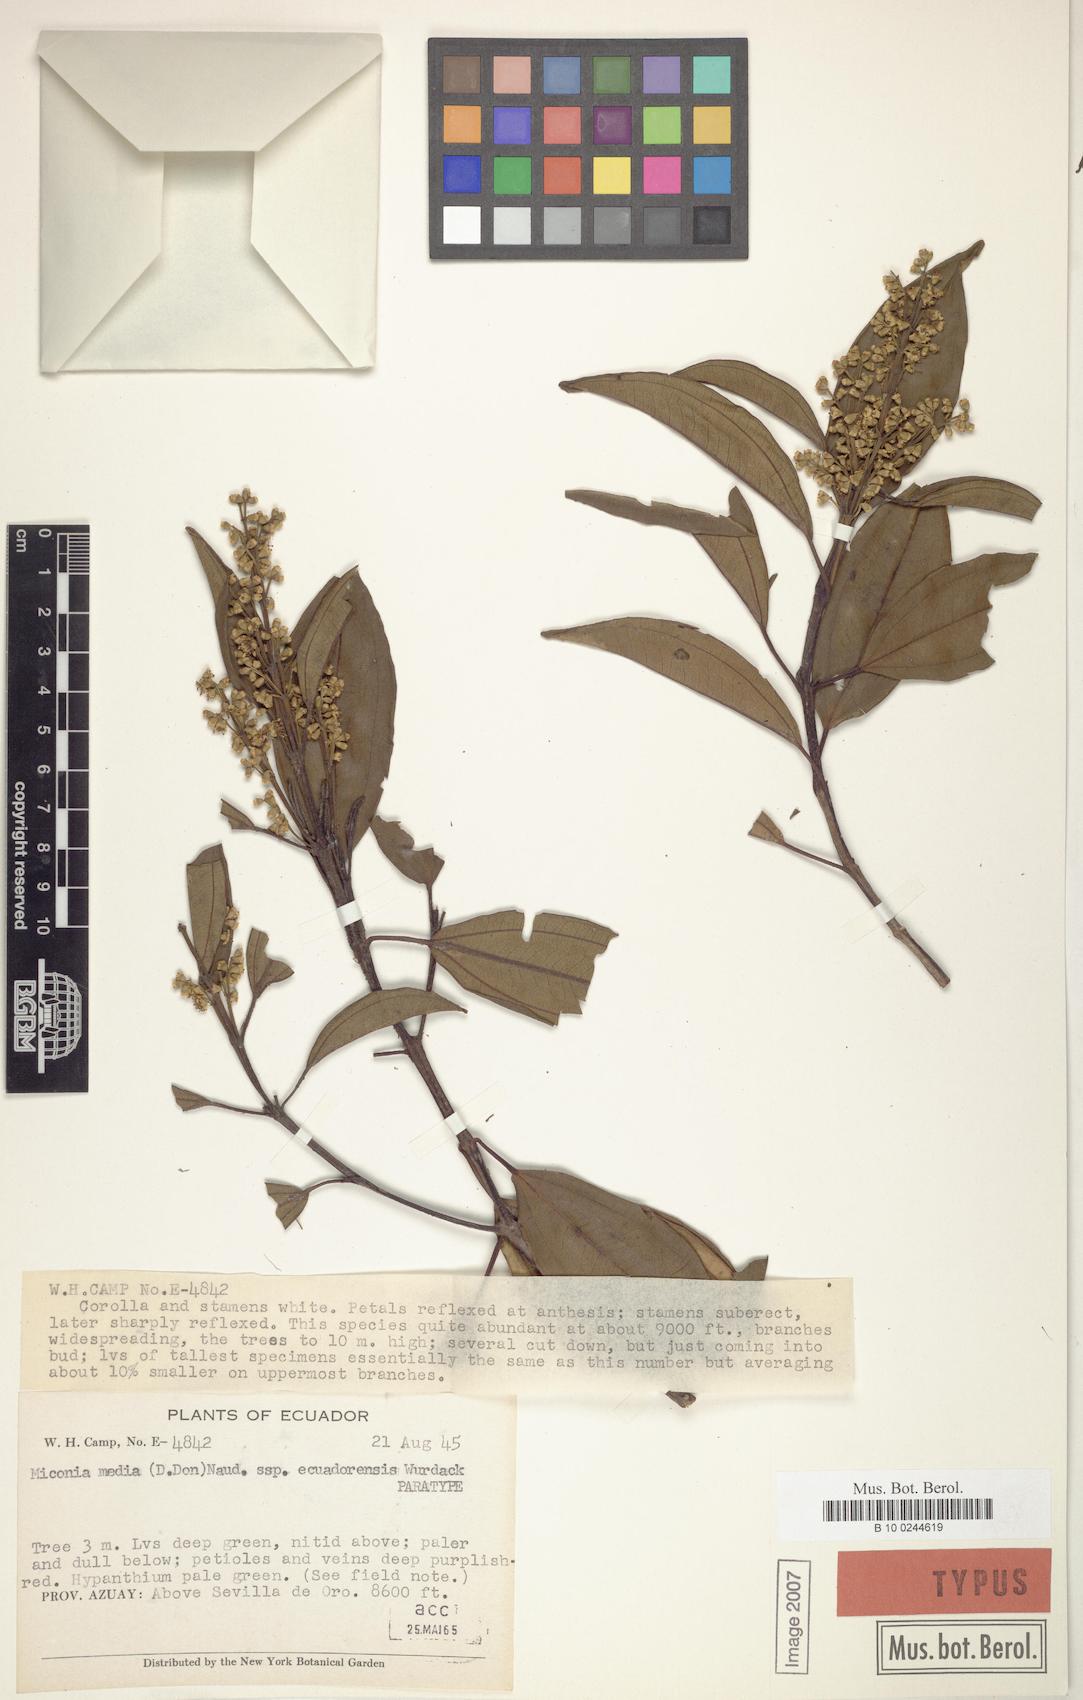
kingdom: Plantae
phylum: Tracheophyta
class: Magnoliopsida
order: Myrtales
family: Melastomataceae
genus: Miconia
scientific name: Miconia media
